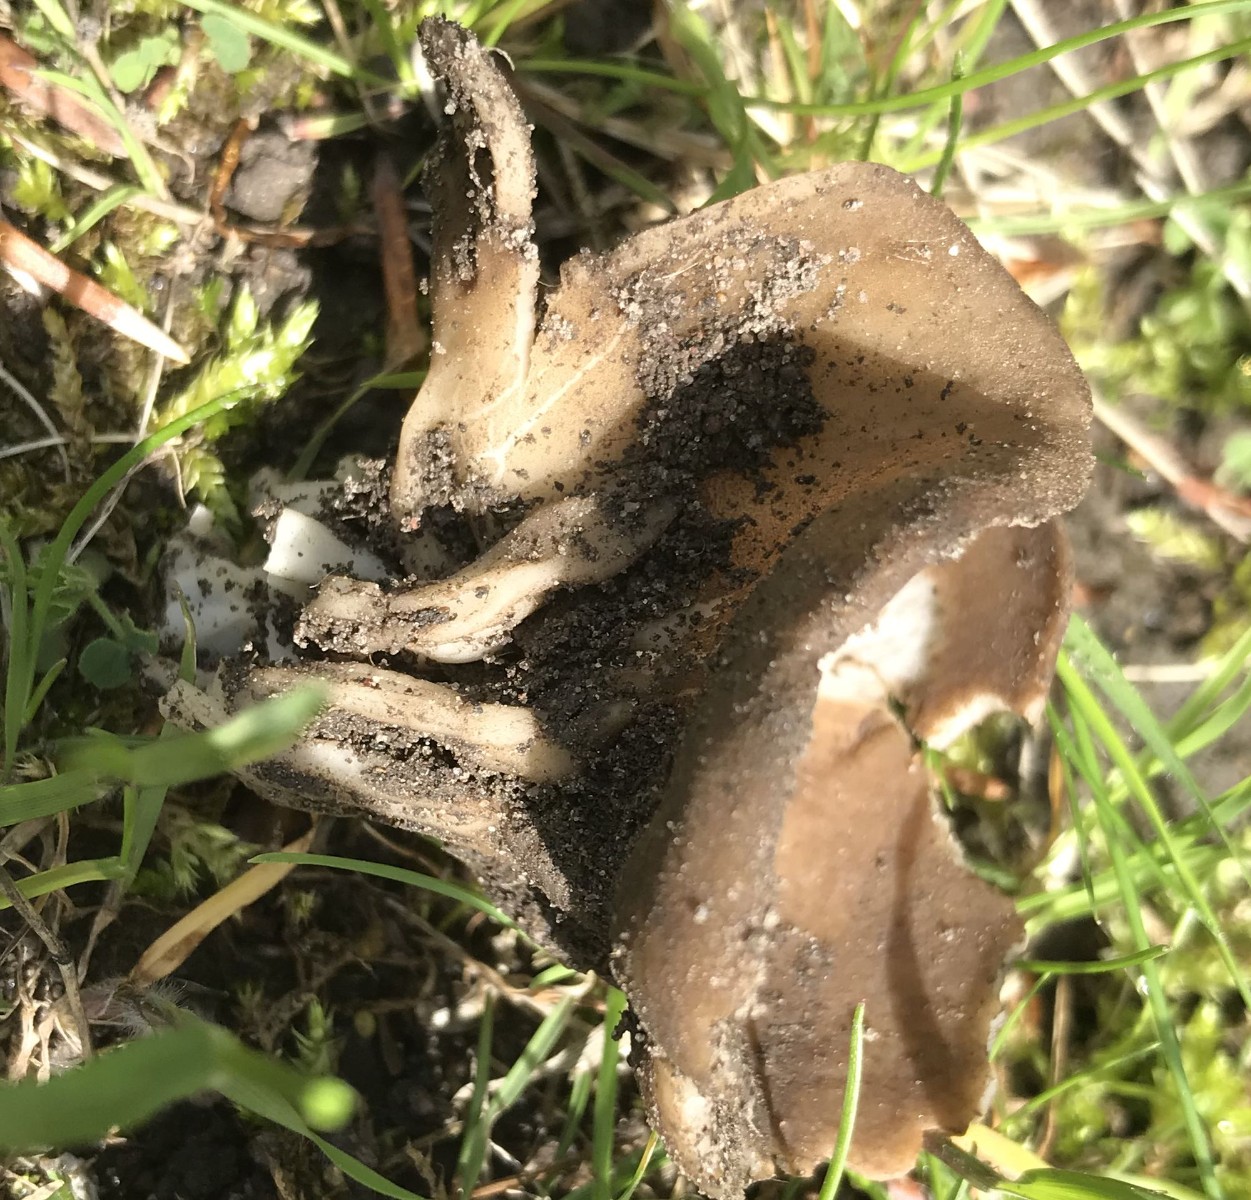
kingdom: Fungi
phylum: Ascomycota
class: Pezizomycetes
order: Pezizales
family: Helvellaceae
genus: Helvella
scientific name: Helvella acetabulum
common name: pokal-foldhat
